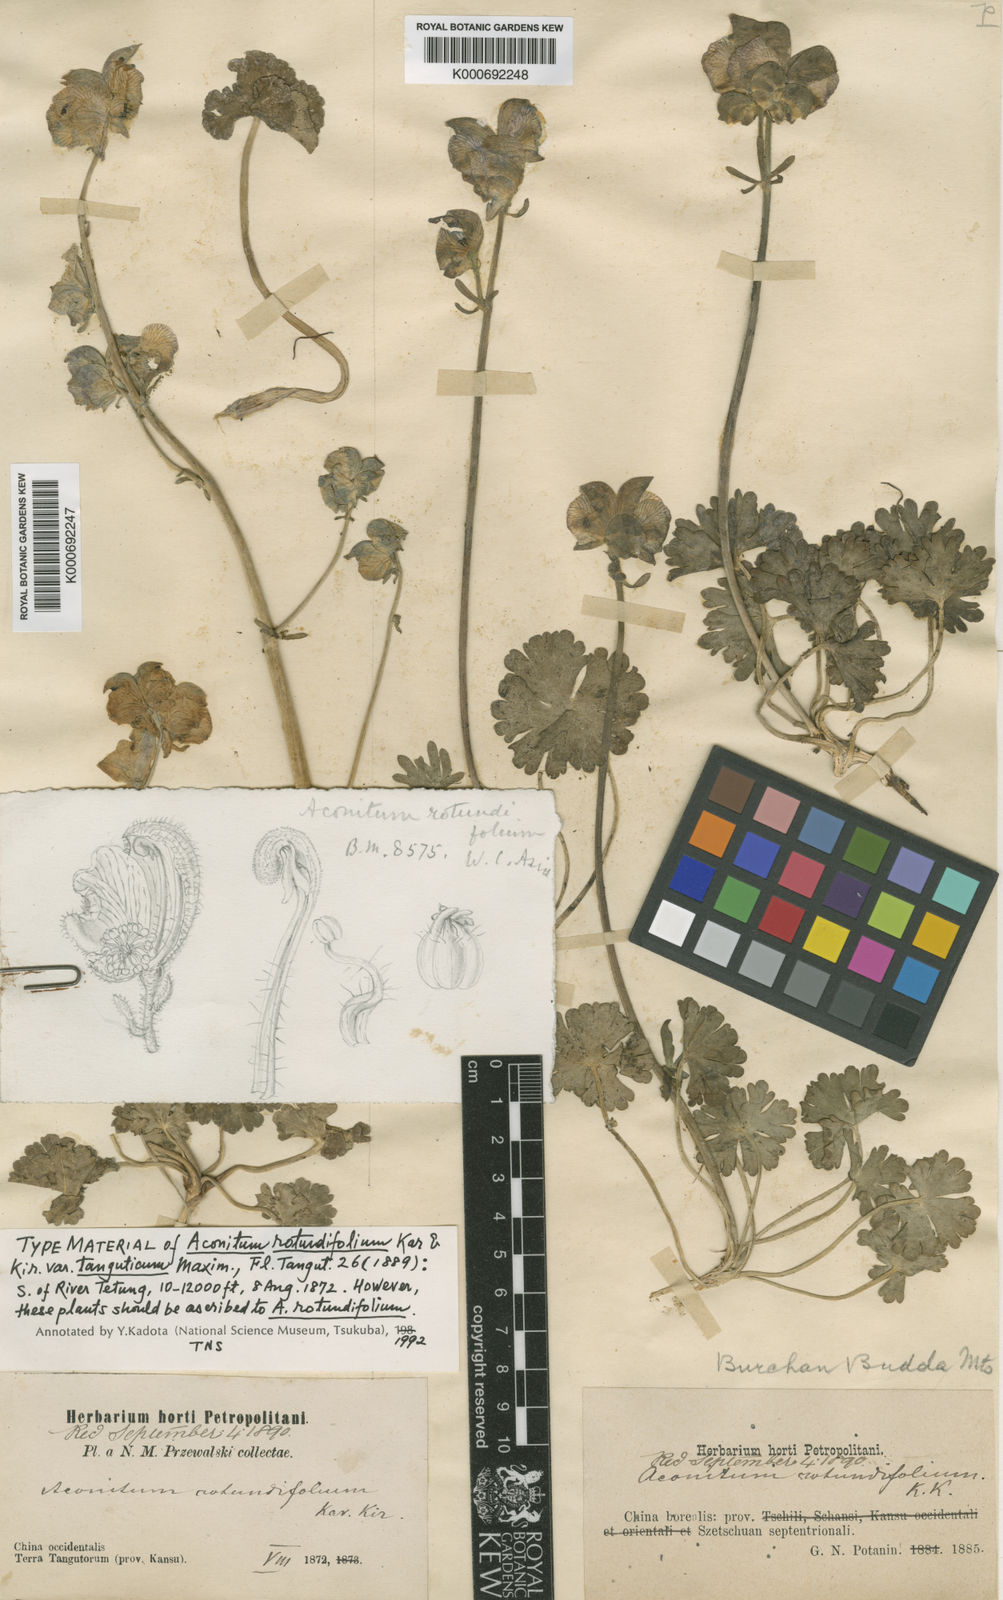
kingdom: Plantae
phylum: Tracheophyta
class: Magnoliopsida
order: Ranunculales
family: Ranunculaceae
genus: Aconitum
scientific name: Aconitum tanguticum
